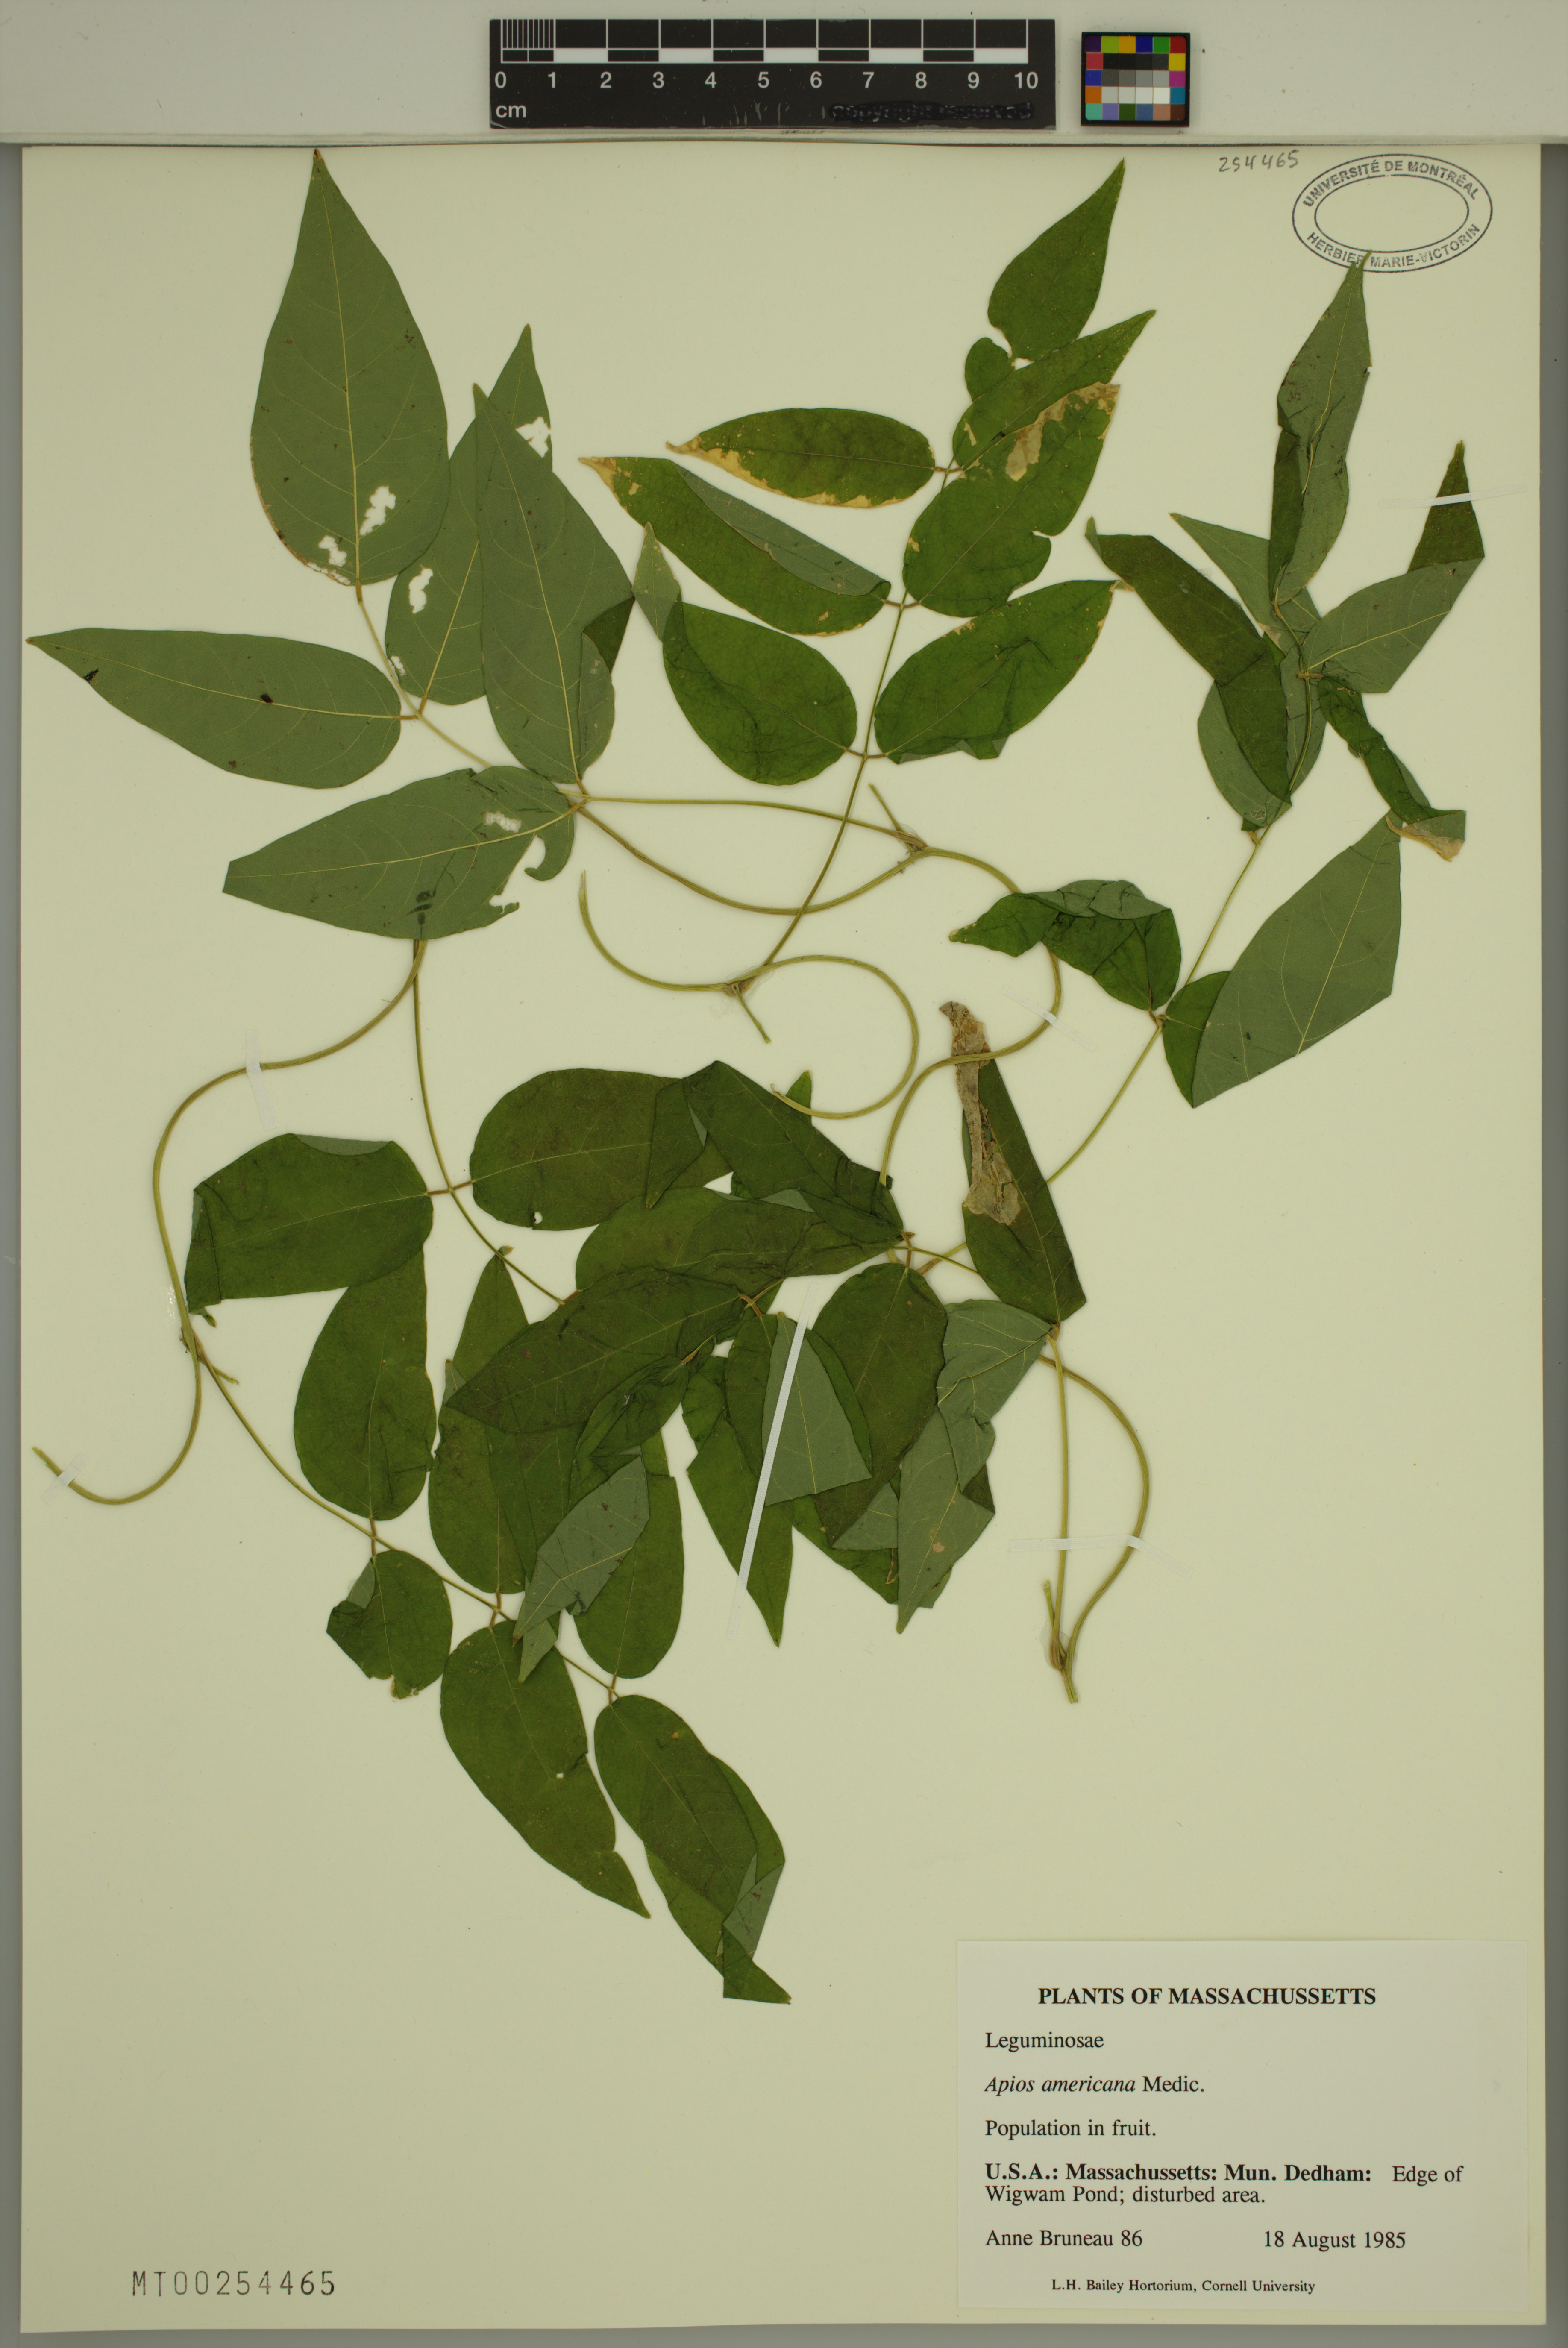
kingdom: Plantae
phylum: Tracheophyta
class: Magnoliopsida
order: Fabales
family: Fabaceae
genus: Apios
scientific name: Apios americana
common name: American potato-bean
